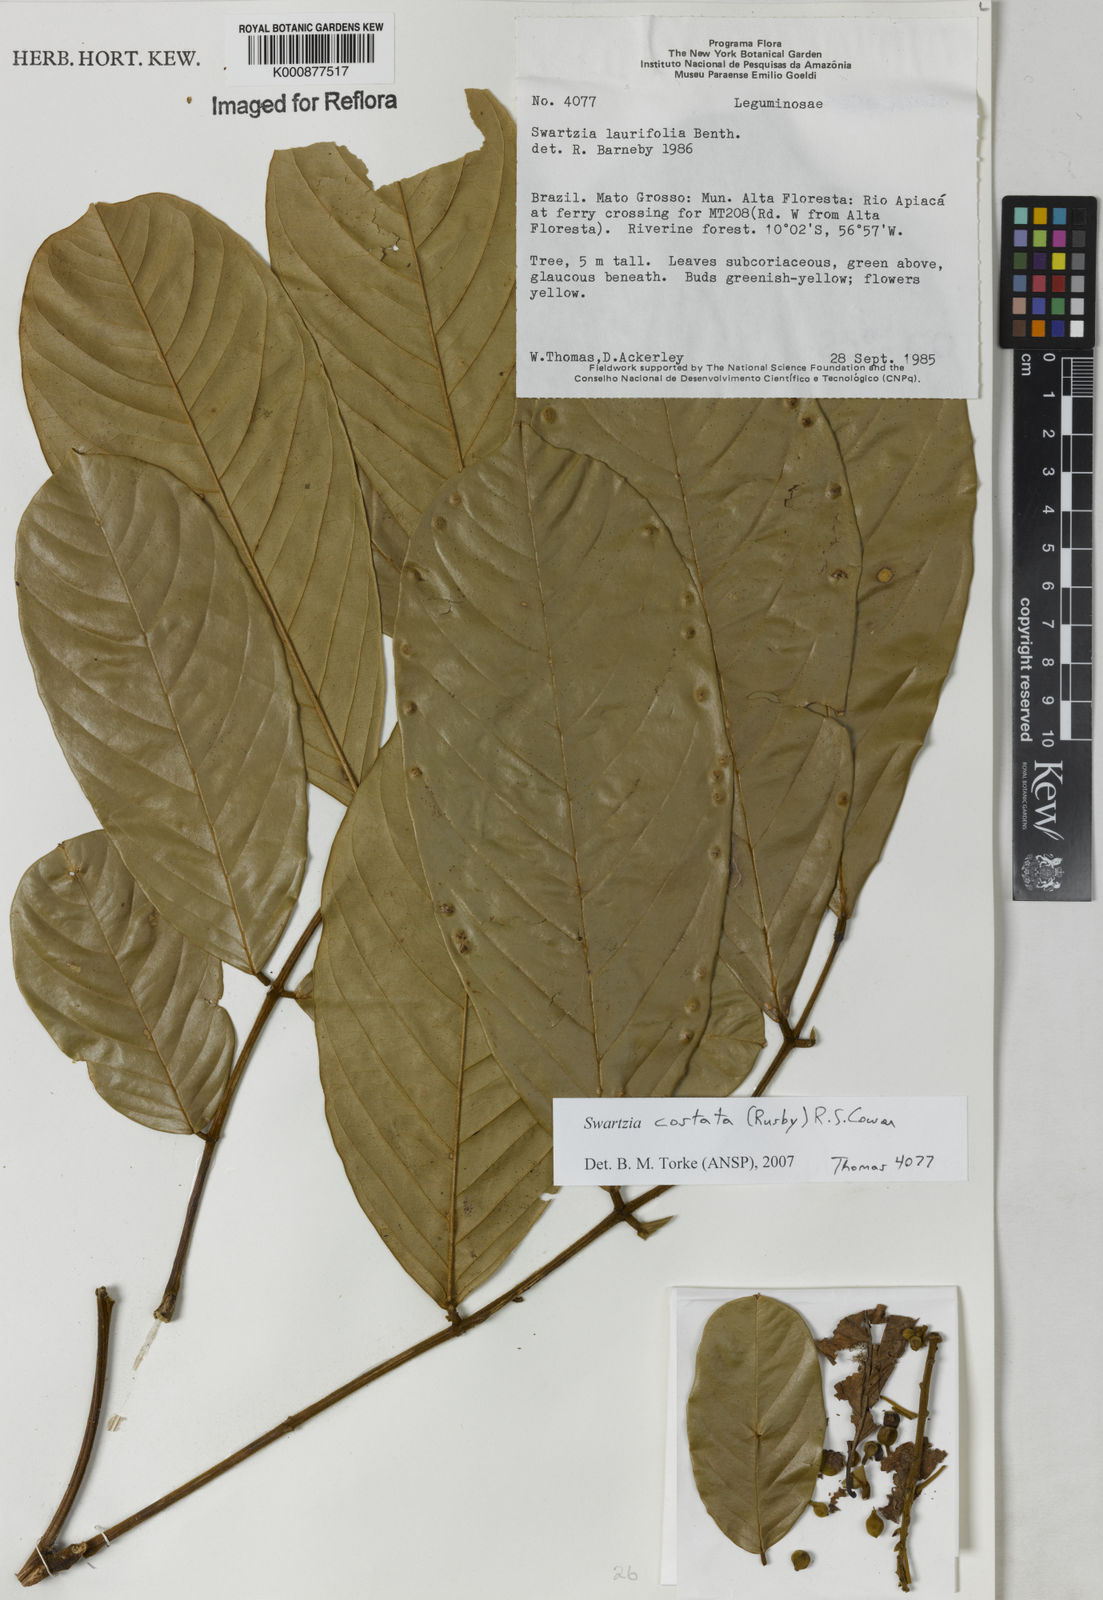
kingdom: Plantae
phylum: Tracheophyta
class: Magnoliopsida
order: Fabales
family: Fabaceae
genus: Swartzia
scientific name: Swartzia costata
